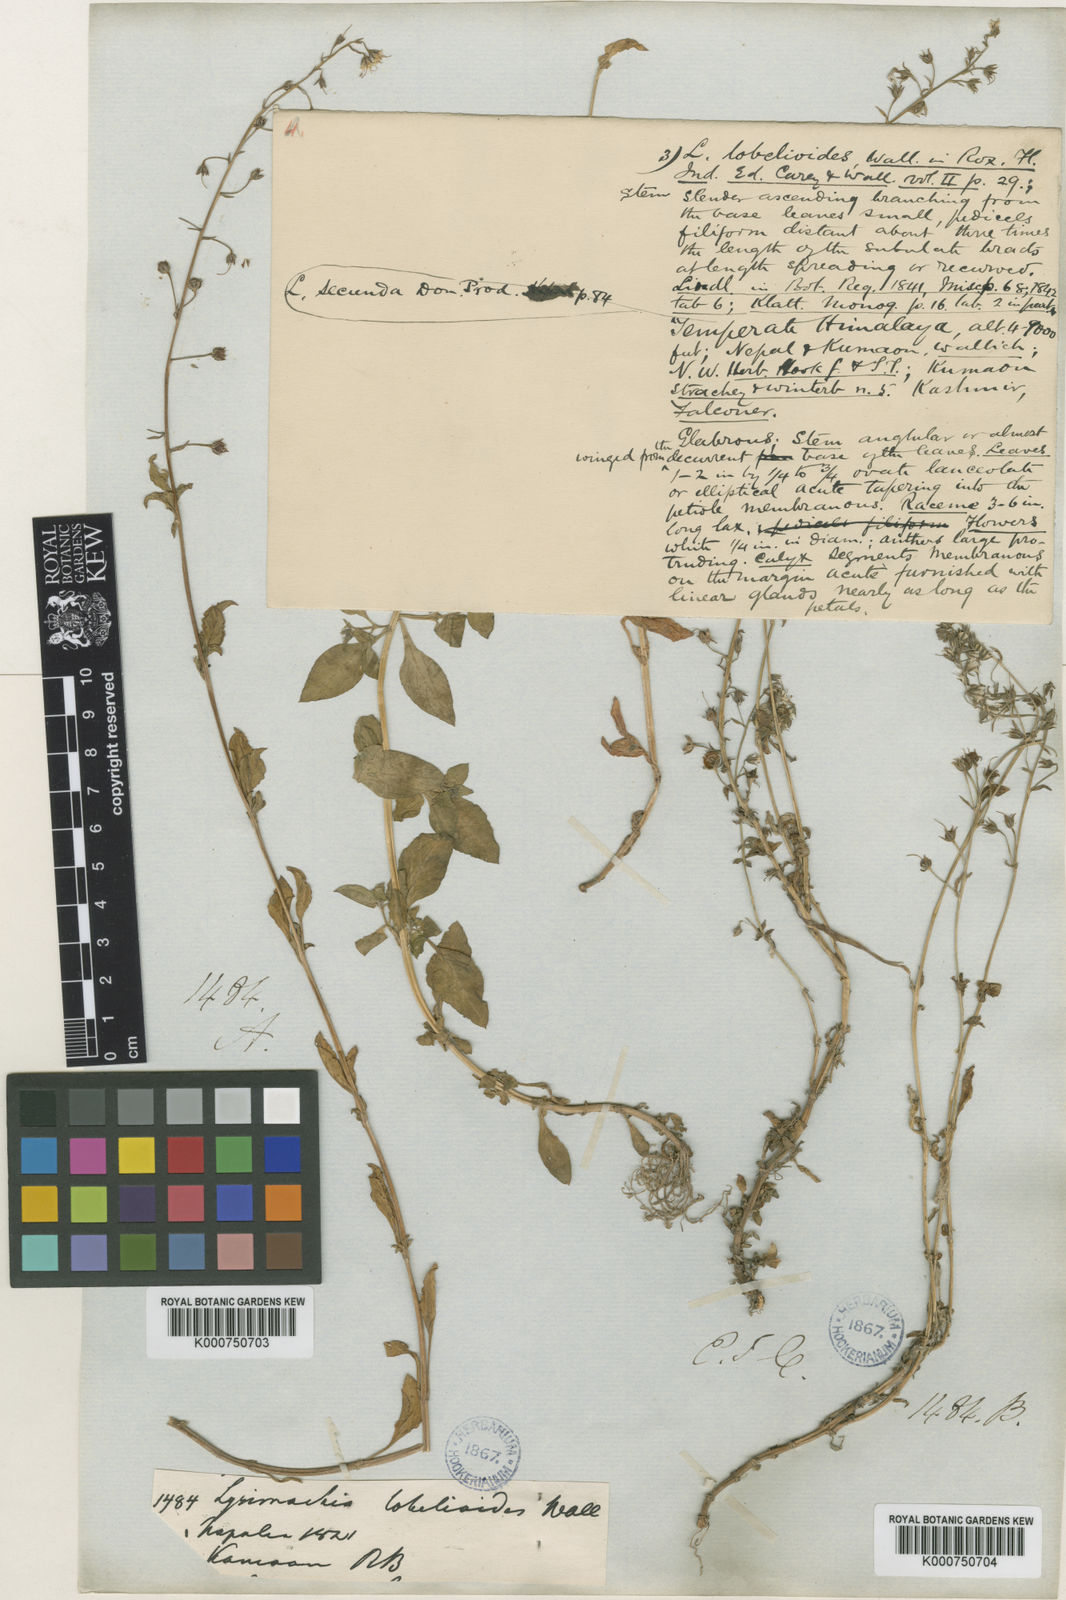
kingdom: Plantae
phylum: Tracheophyta
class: Magnoliopsida
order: Ericales
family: Primulaceae
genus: Lysimachia
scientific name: Lysimachia lobelioides
